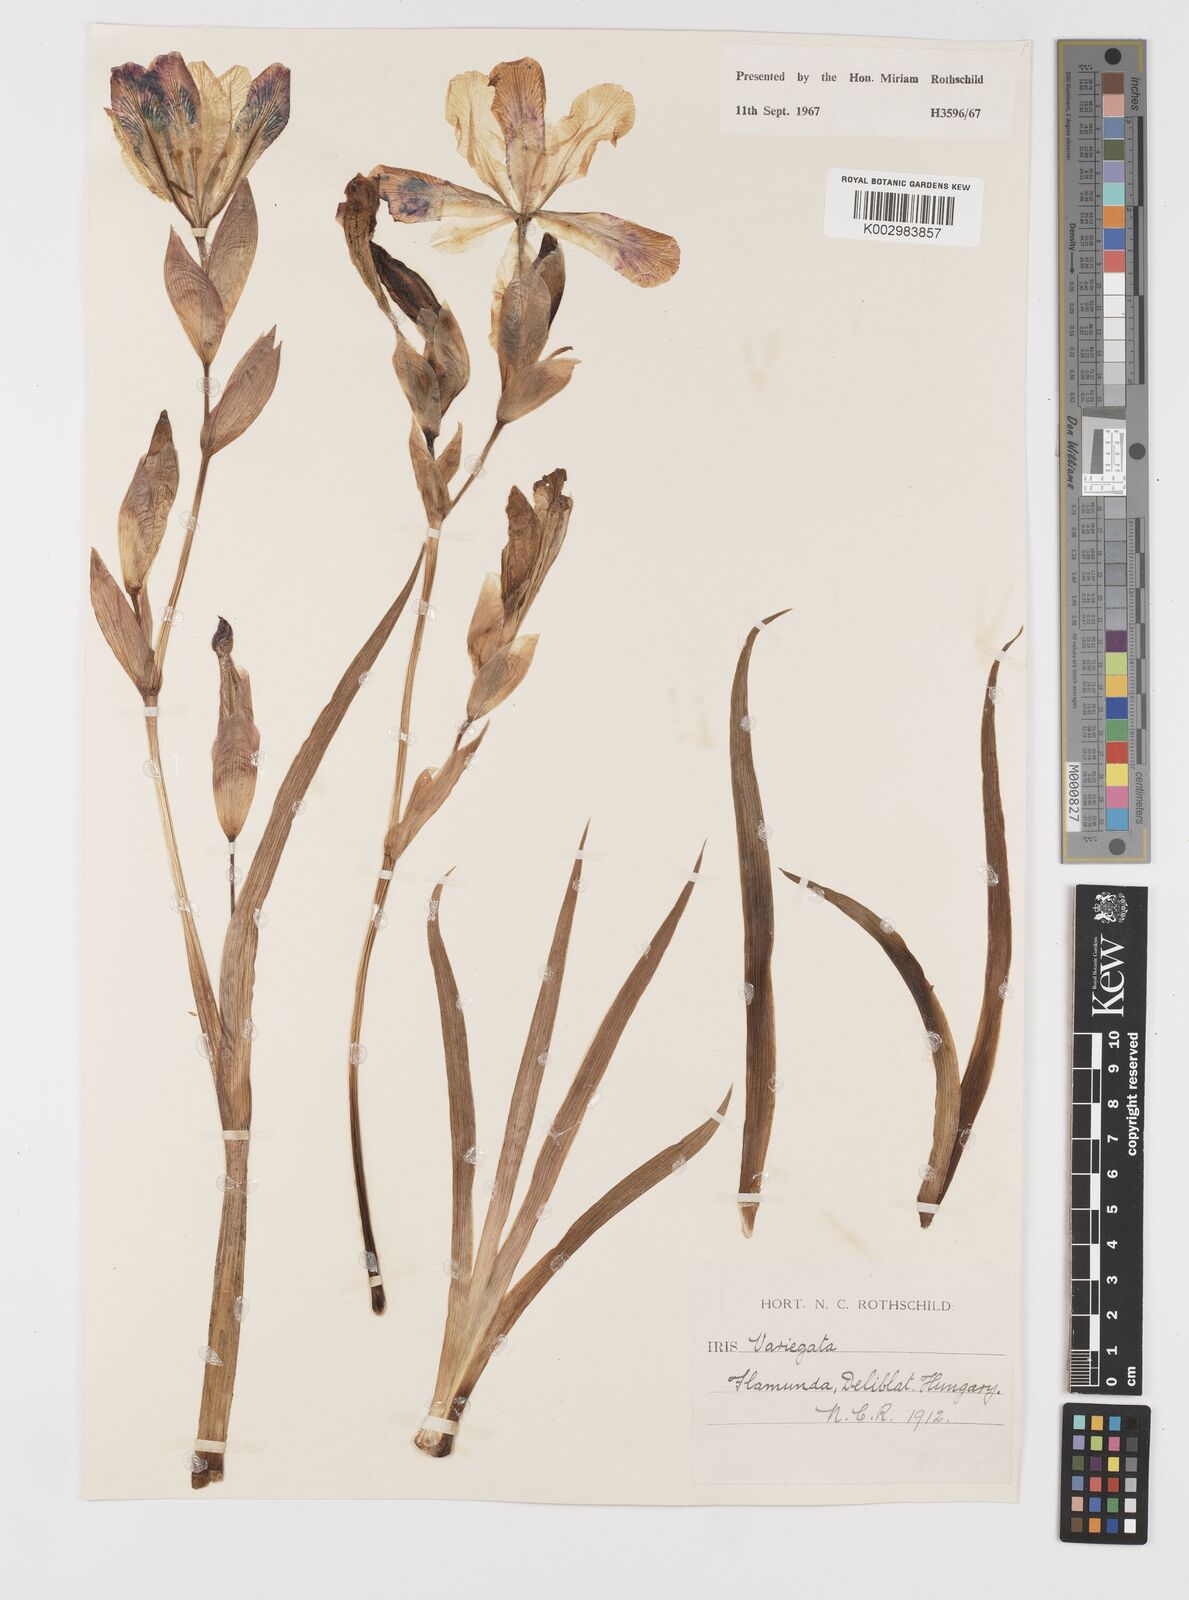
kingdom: Plantae
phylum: Tracheophyta
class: Liliopsida
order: Asparagales
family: Iridaceae
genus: Iris
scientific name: Iris variegata
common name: Hungarian iris
